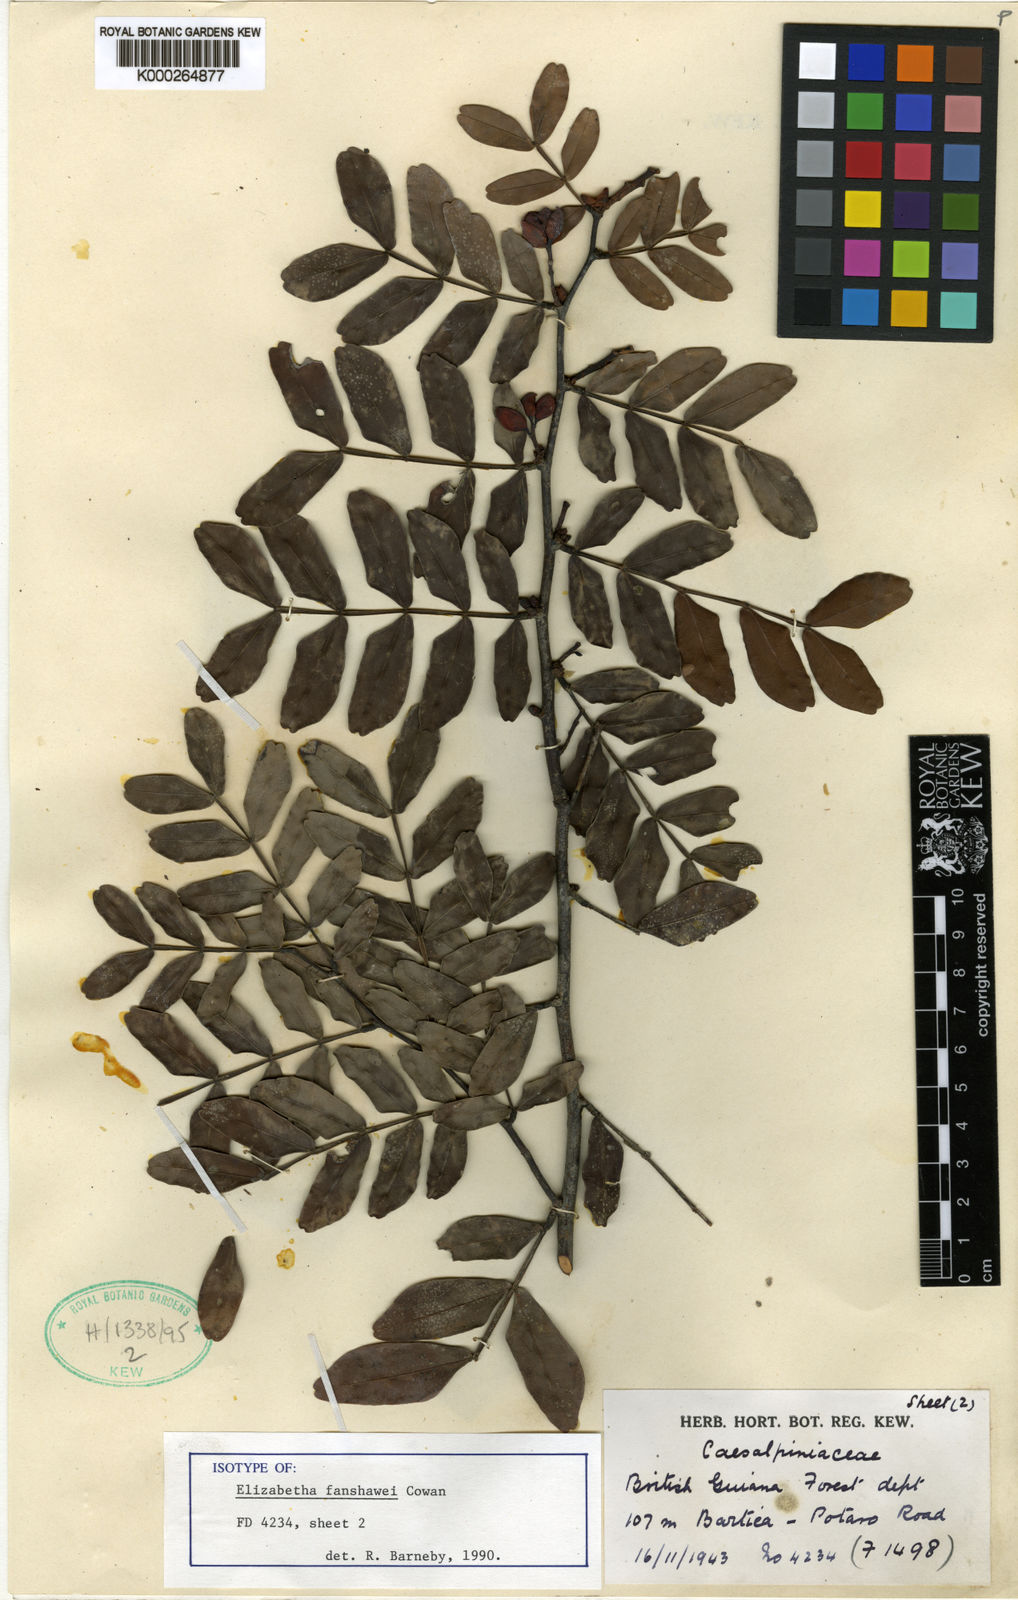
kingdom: Plantae
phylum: Tracheophyta
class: Magnoliopsida
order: Fabales
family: Fabaceae
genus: Paloue
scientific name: Paloue fanshawei
